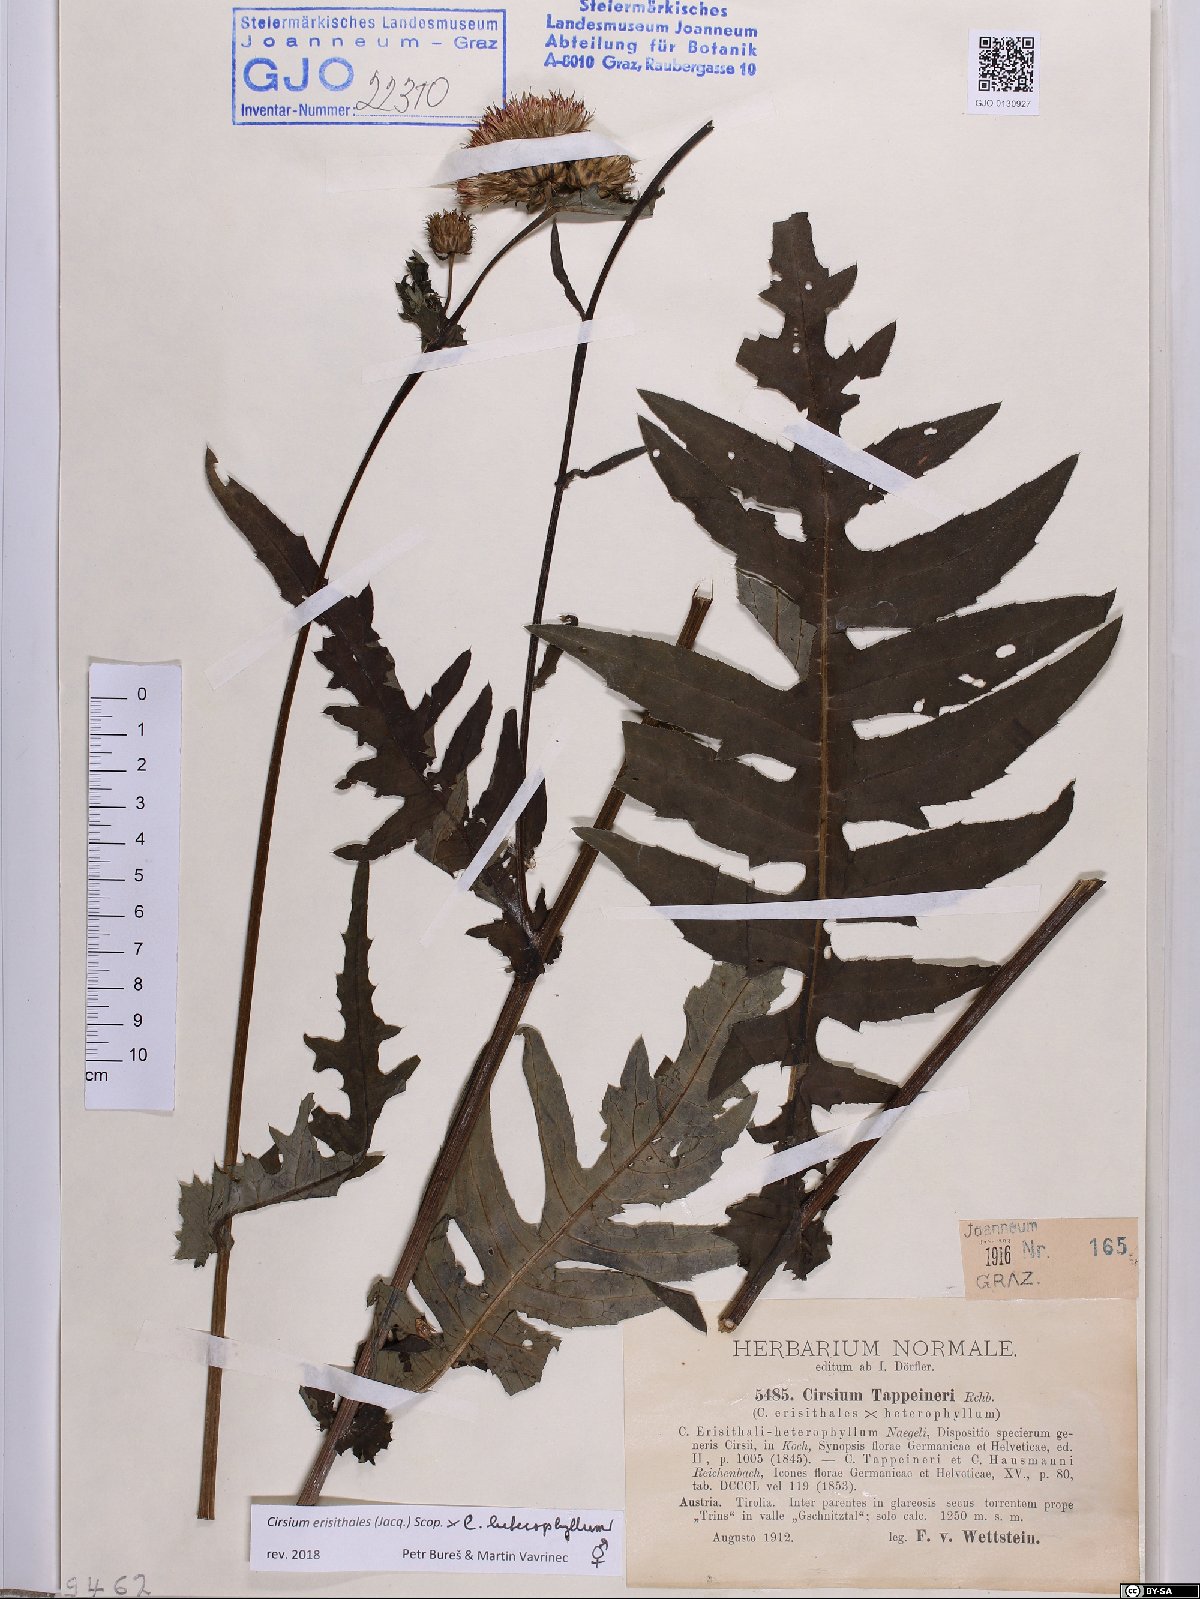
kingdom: Plantae
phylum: Tracheophyta
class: Magnoliopsida
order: Asterales
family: Asteraceae
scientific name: Asteraceae
